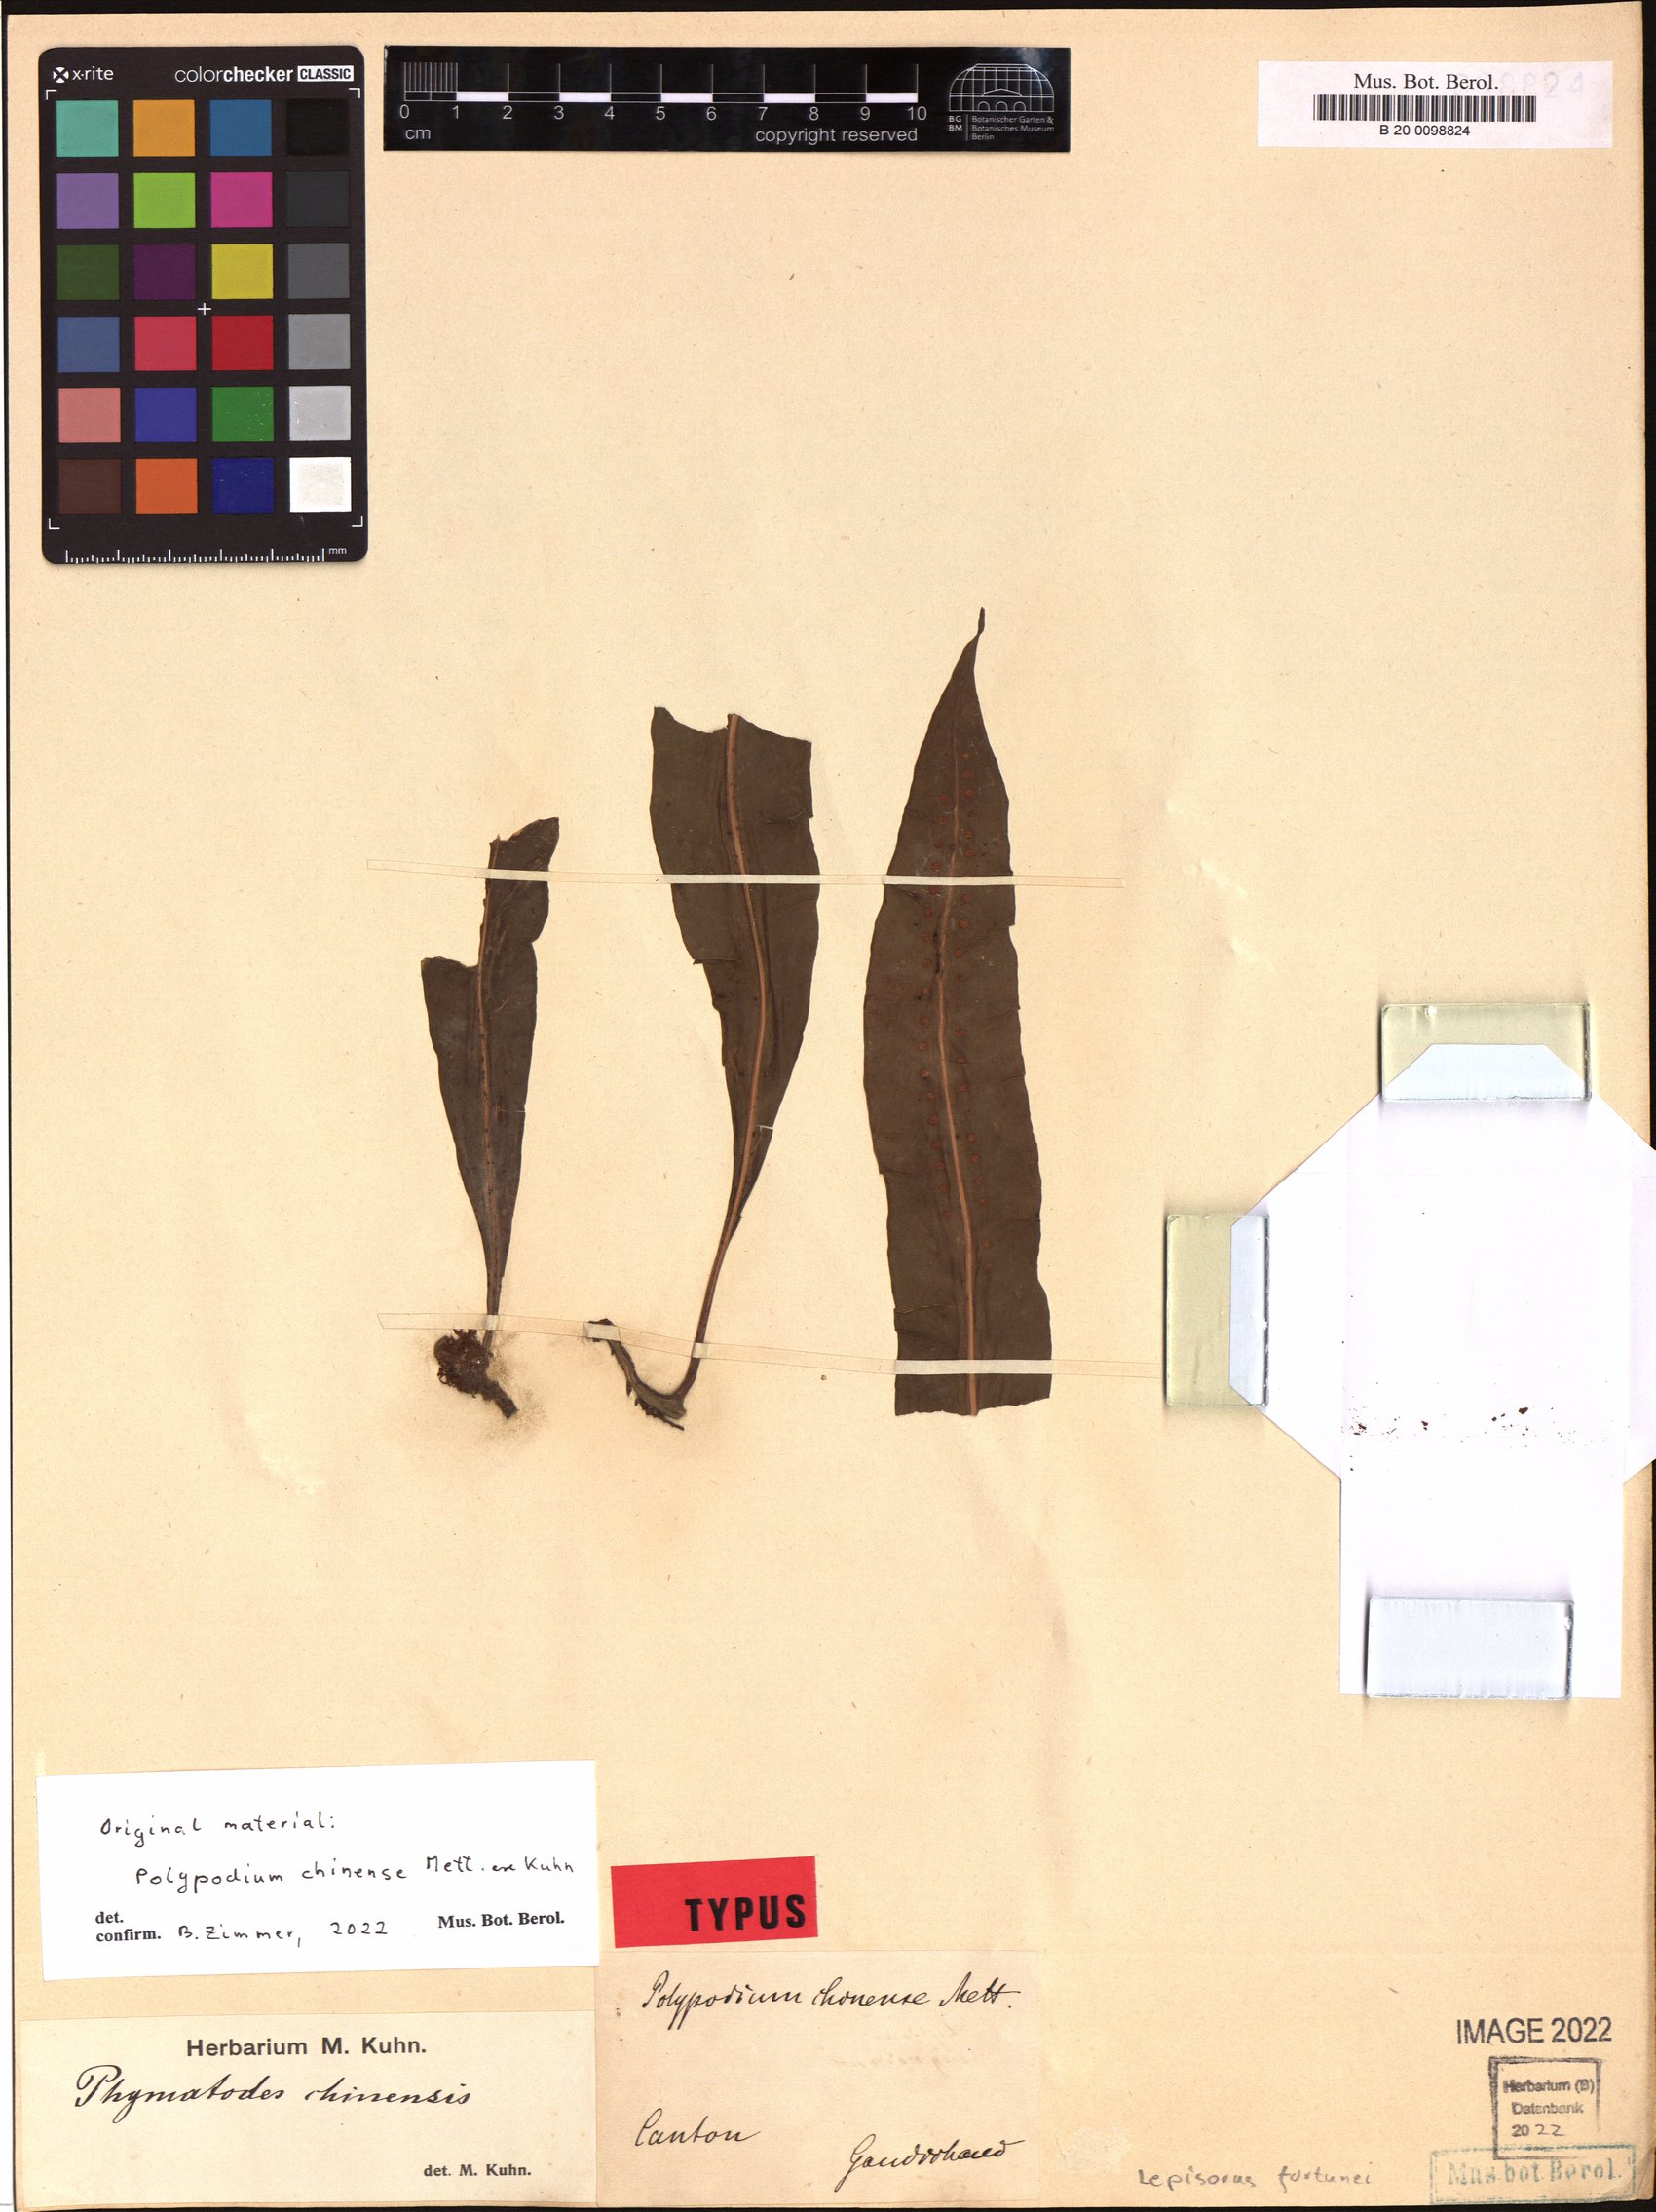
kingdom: Plantae
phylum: Tracheophyta
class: Polypodiopsida
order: Polypodiales
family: Polypodiaceae
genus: Lepisorus
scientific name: Lepisorus fortuni
